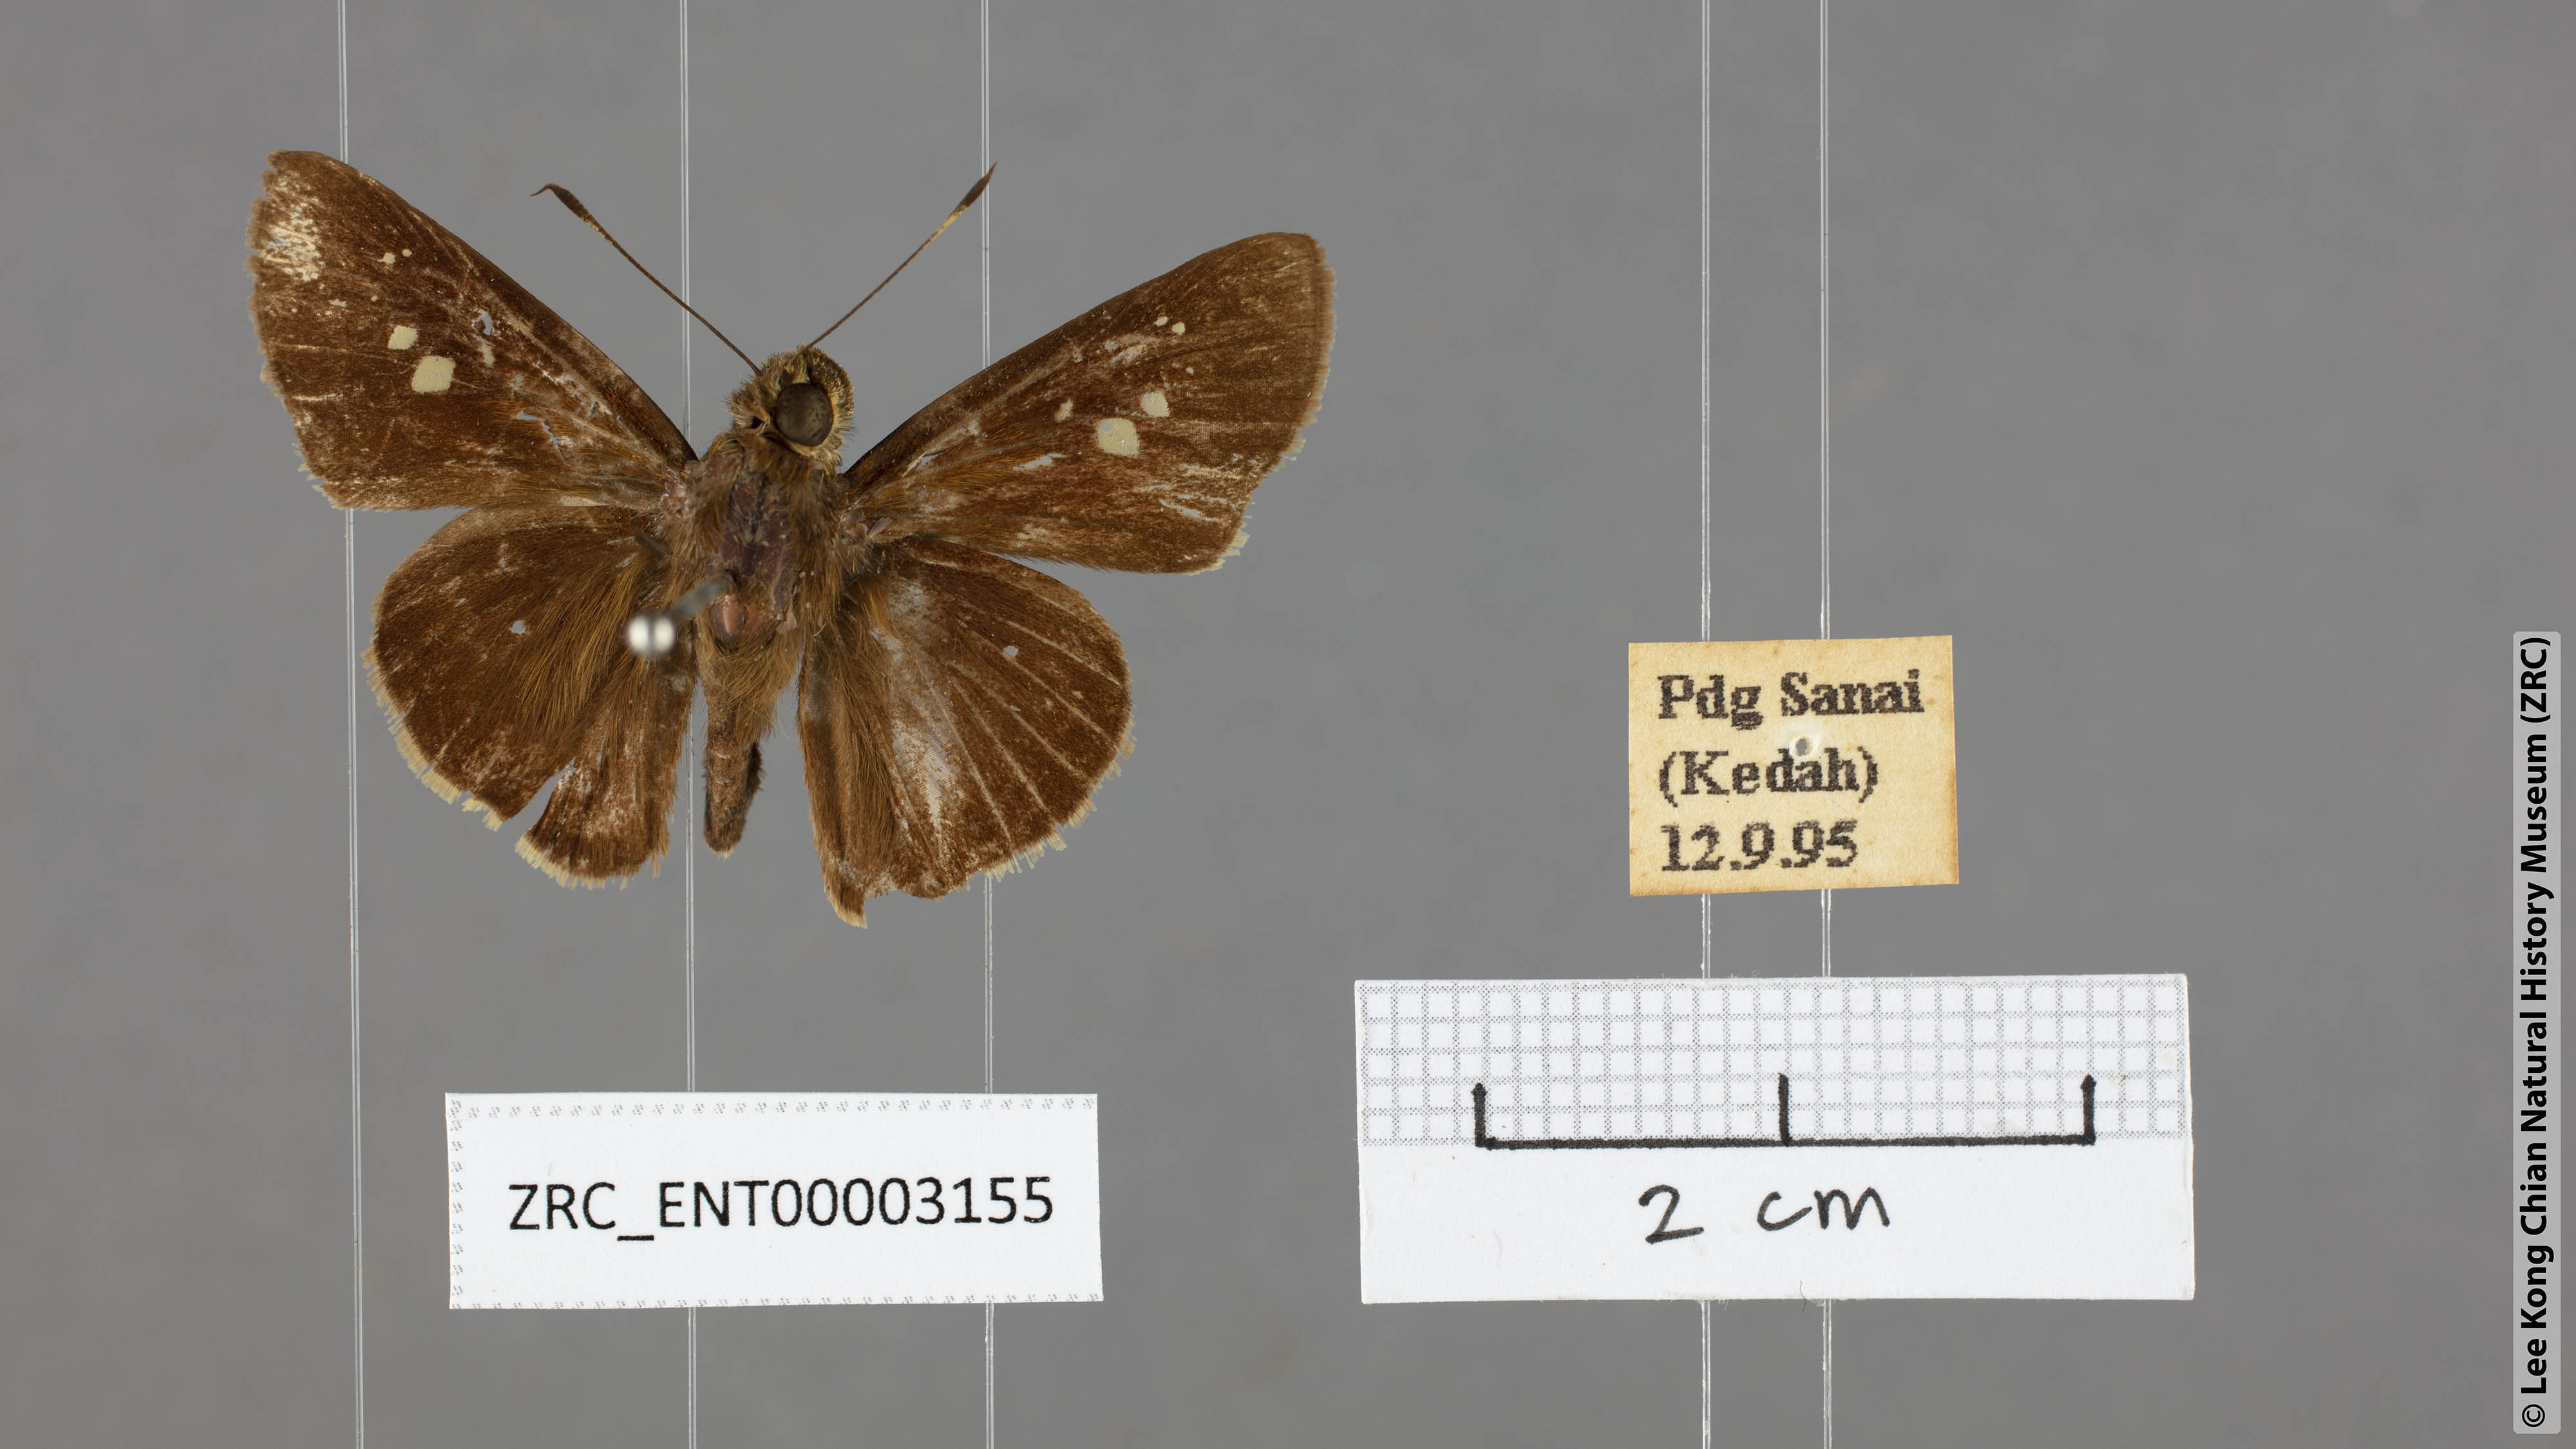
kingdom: Animalia
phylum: Arthropoda
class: Insecta
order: Lepidoptera
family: Hesperiidae
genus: Caltoris
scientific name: Caltoris cormasa
